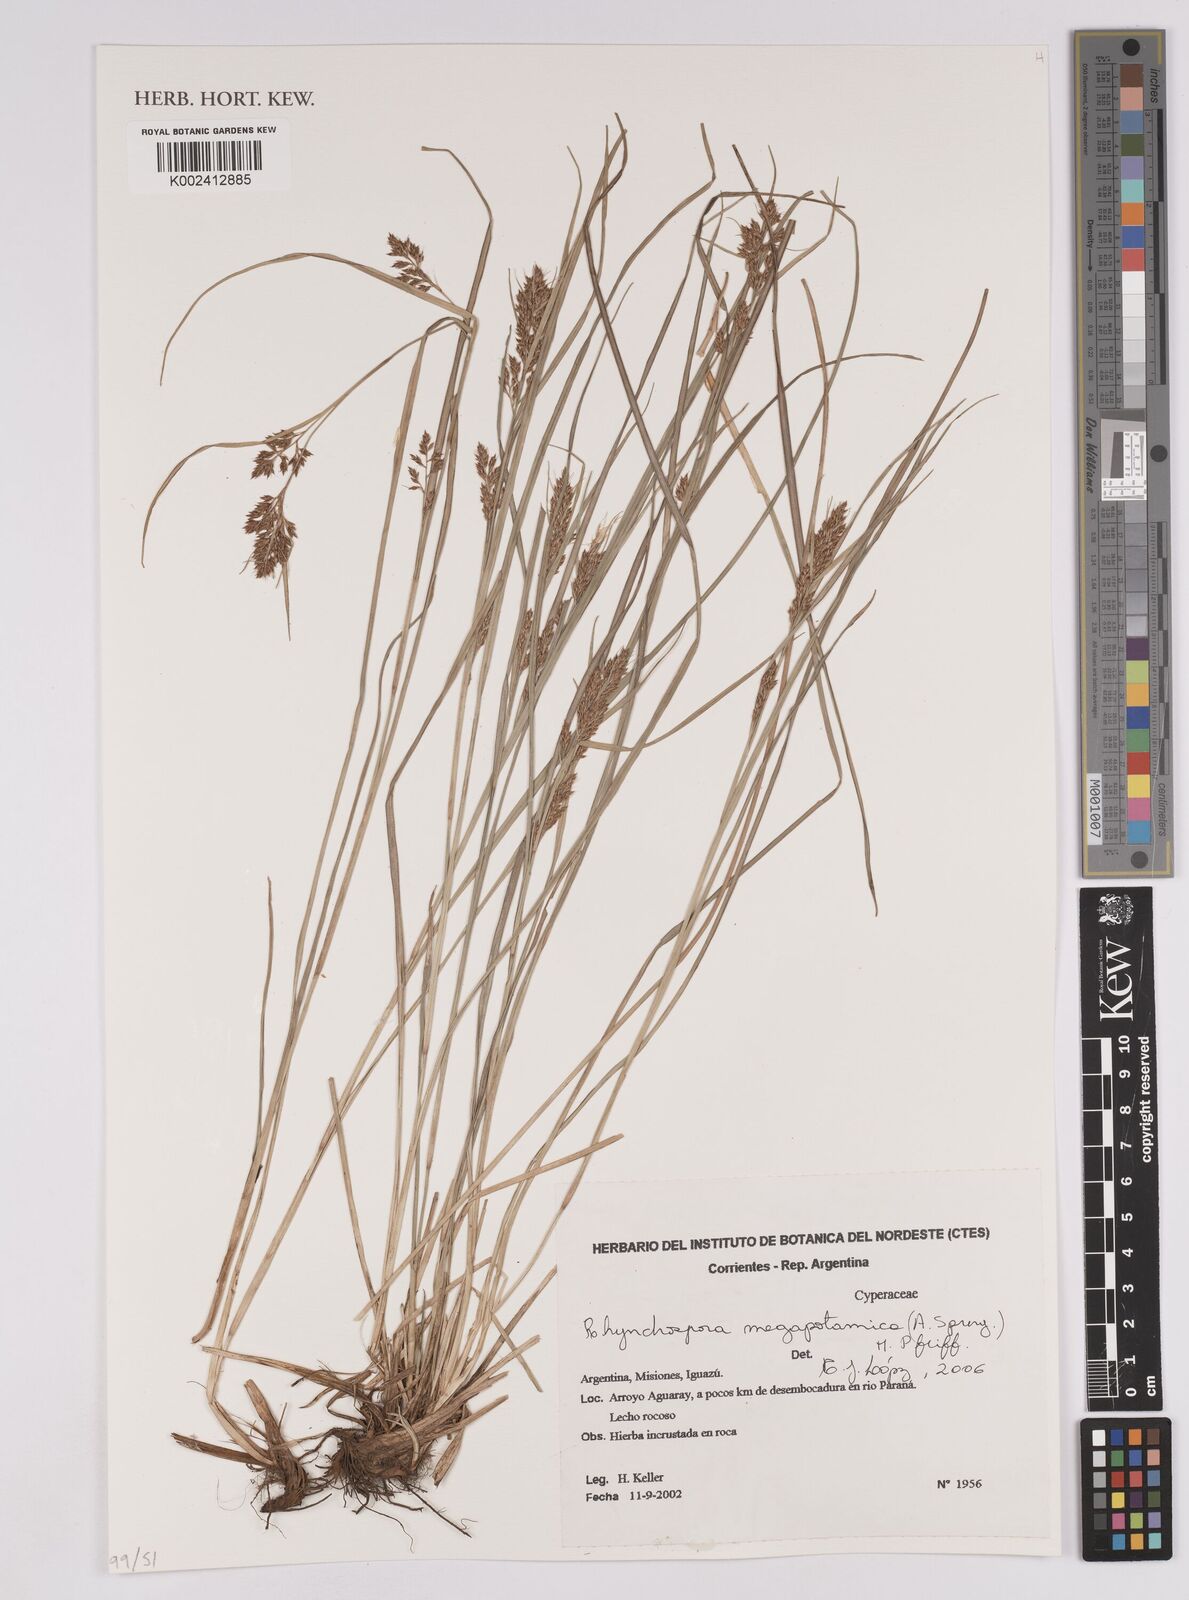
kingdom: Plantae
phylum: Tracheophyta
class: Liliopsida
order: Poales
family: Cyperaceae
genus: Rhynchospora
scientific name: Rhynchospora megapotamica
